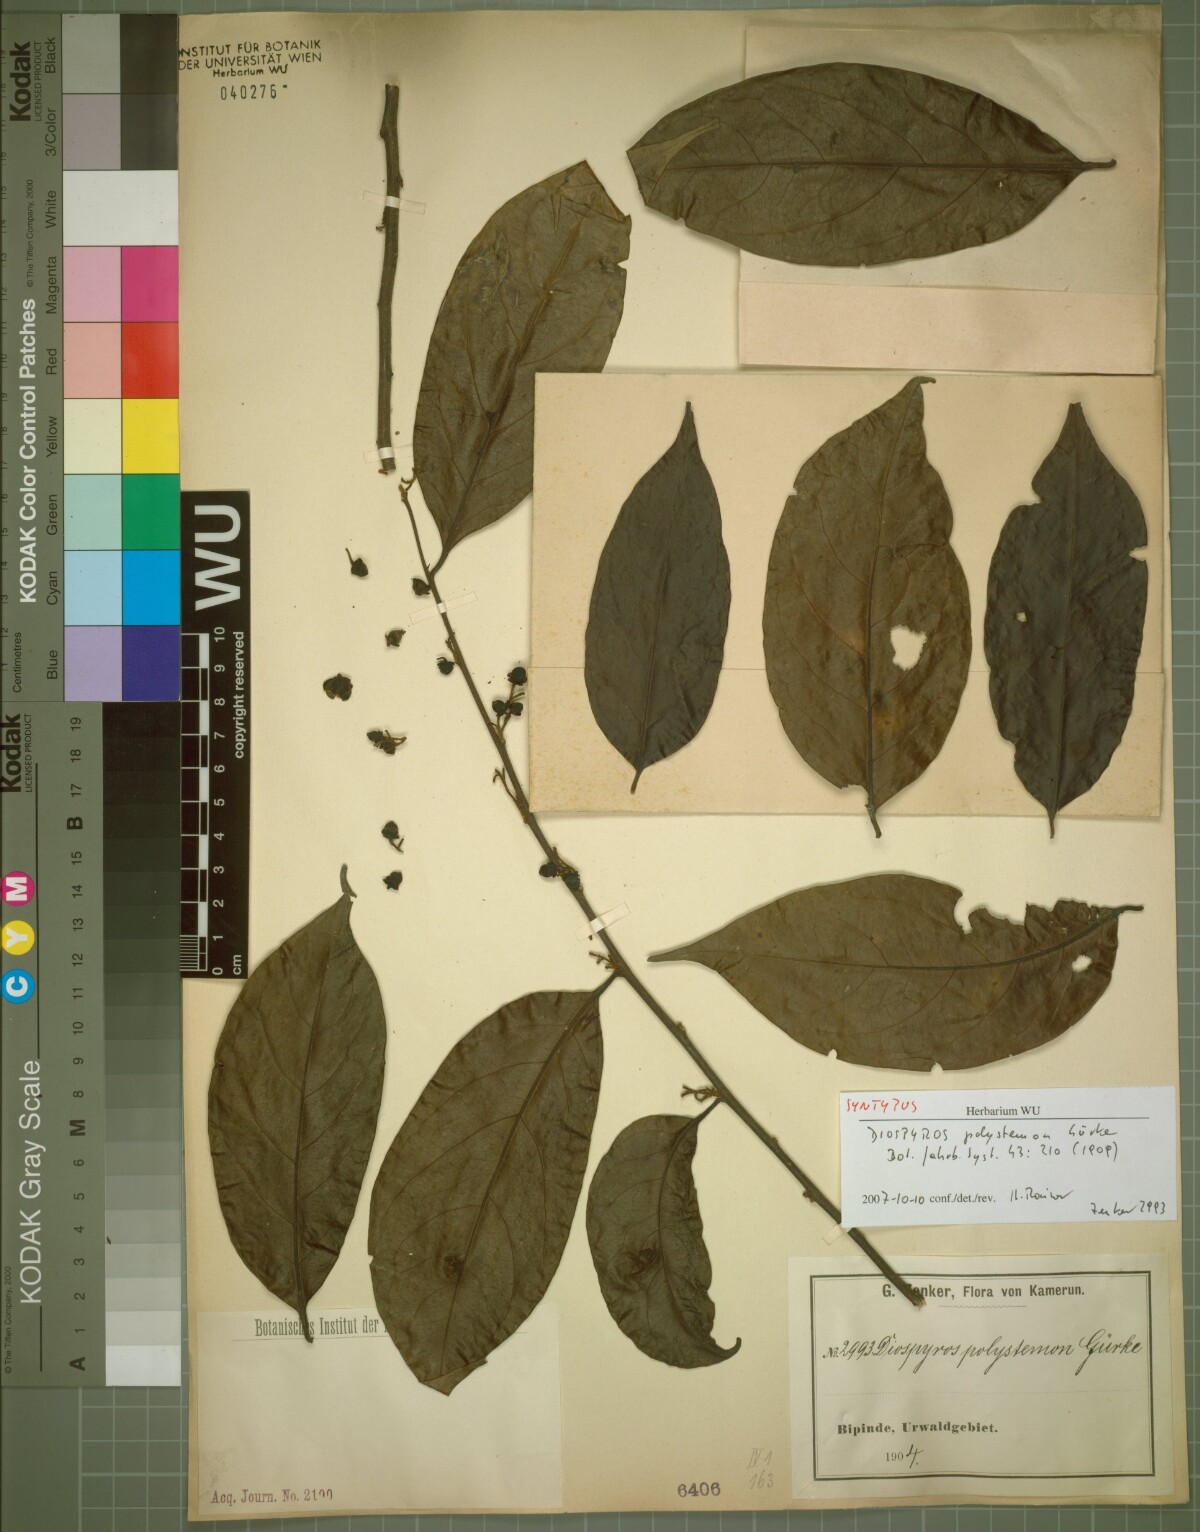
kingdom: Plantae
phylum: Tracheophyta
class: Magnoliopsida
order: Ericales
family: Ebenaceae
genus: Diospyros
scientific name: Diospyros polystemon
